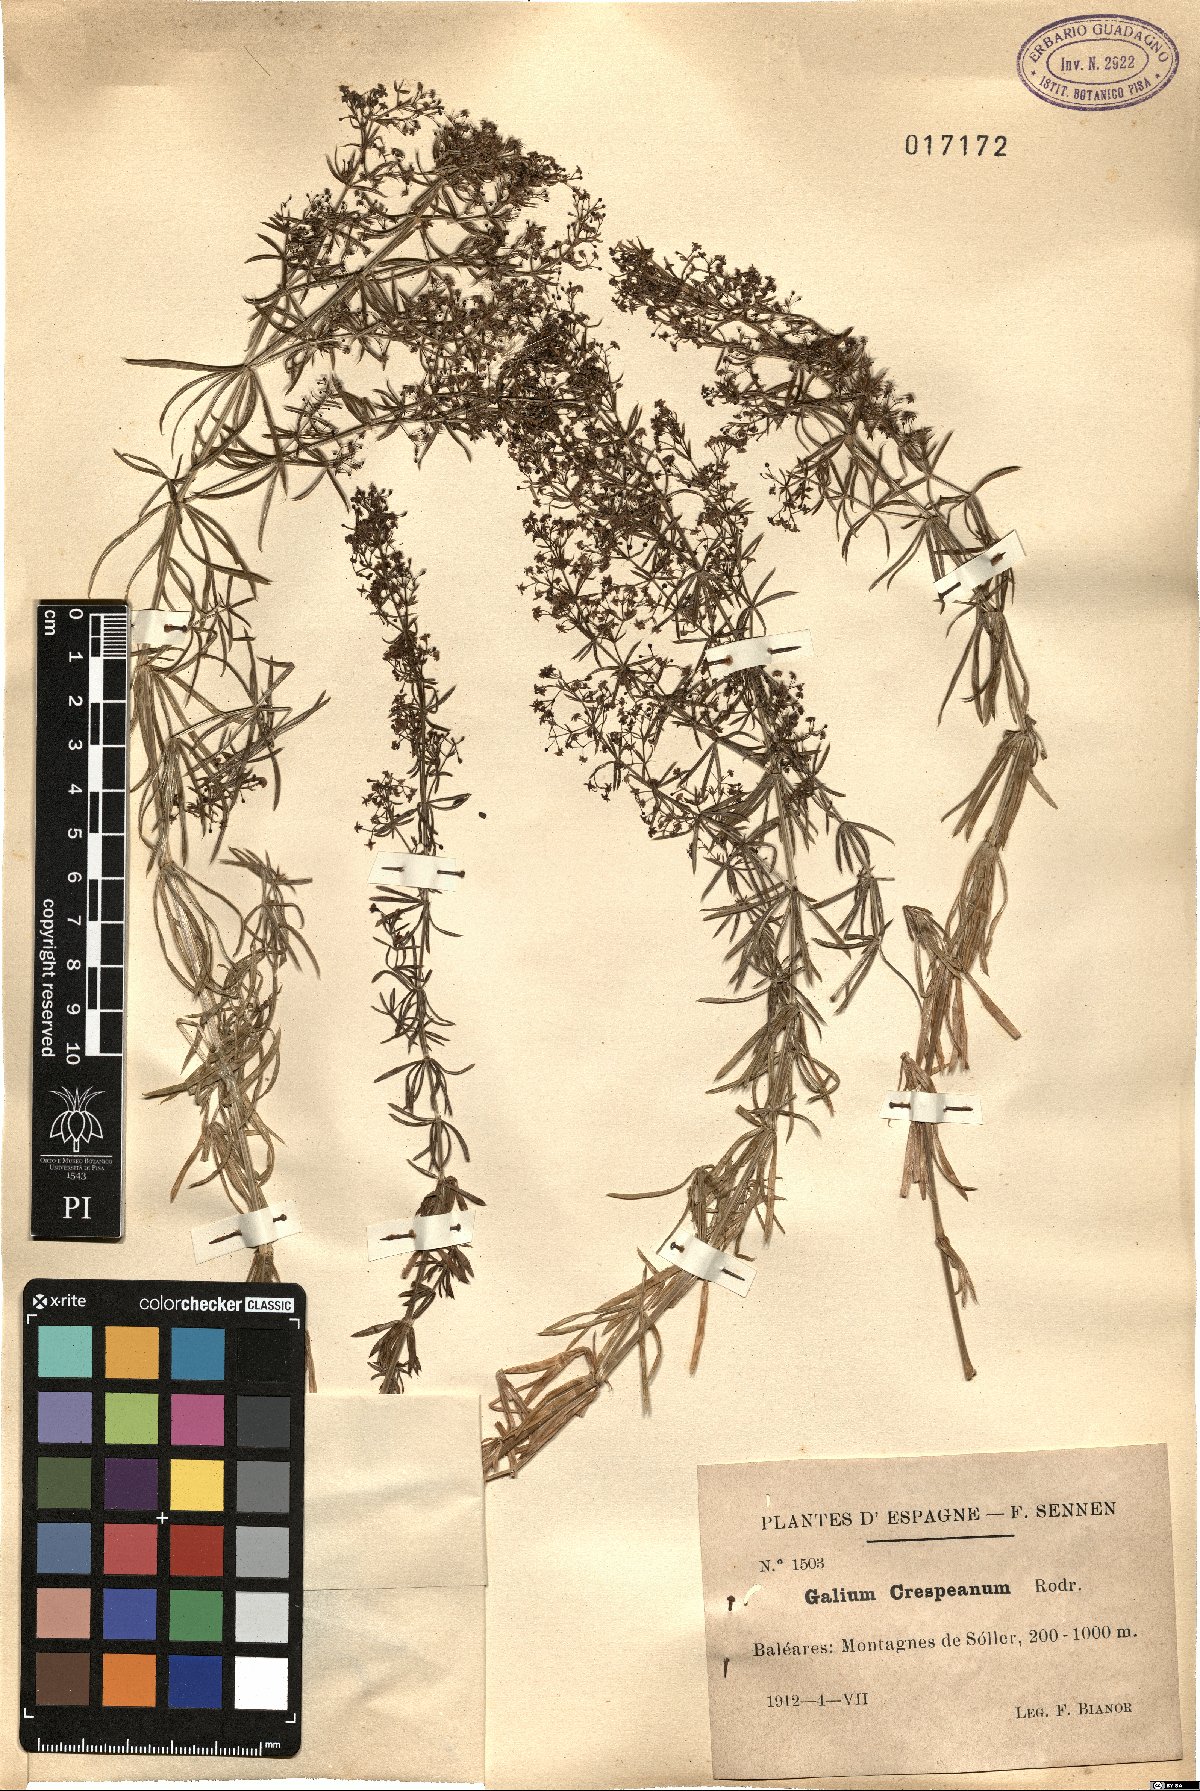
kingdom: Plantae
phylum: Tracheophyta
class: Magnoliopsida
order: Gentianales
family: Rubiaceae
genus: Galium
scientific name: Galium crespianum
